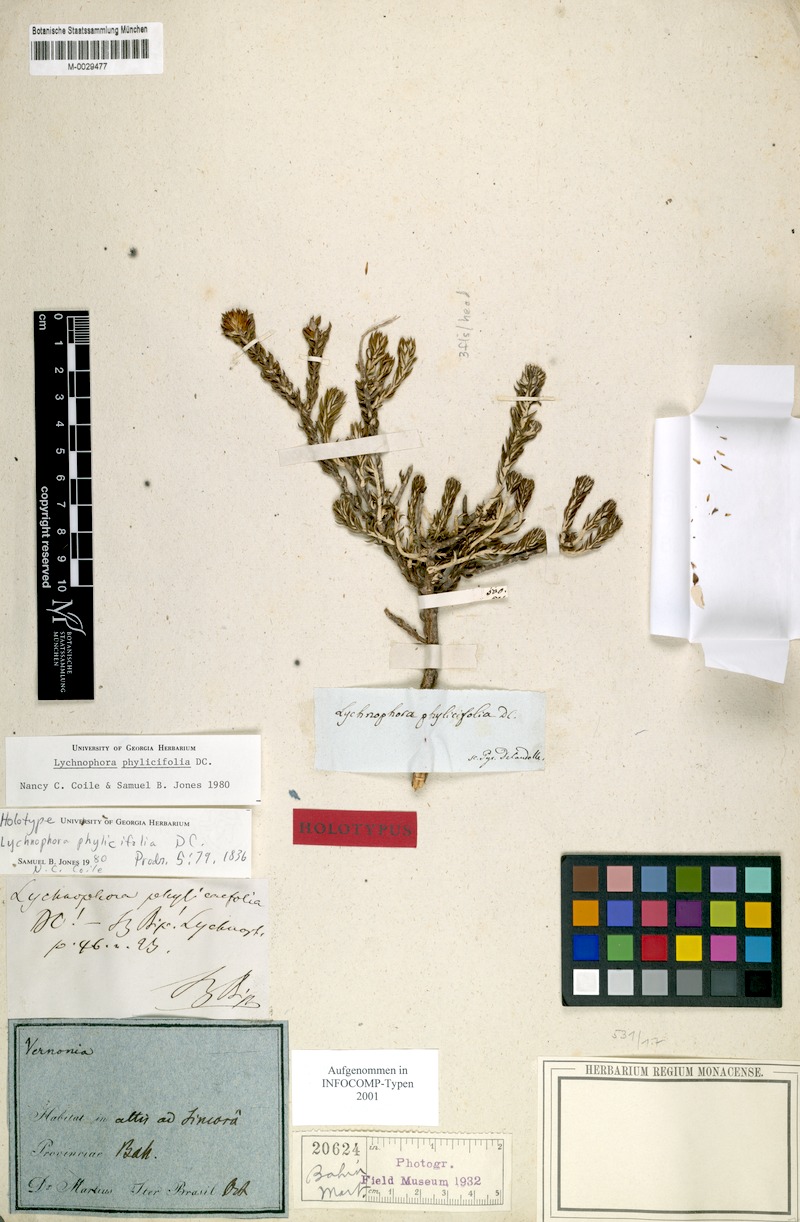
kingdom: Plantae
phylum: Tracheophyta
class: Magnoliopsida
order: Asterales
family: Asteraceae
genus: Lychnophora
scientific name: Lychnophora phylicifolia
